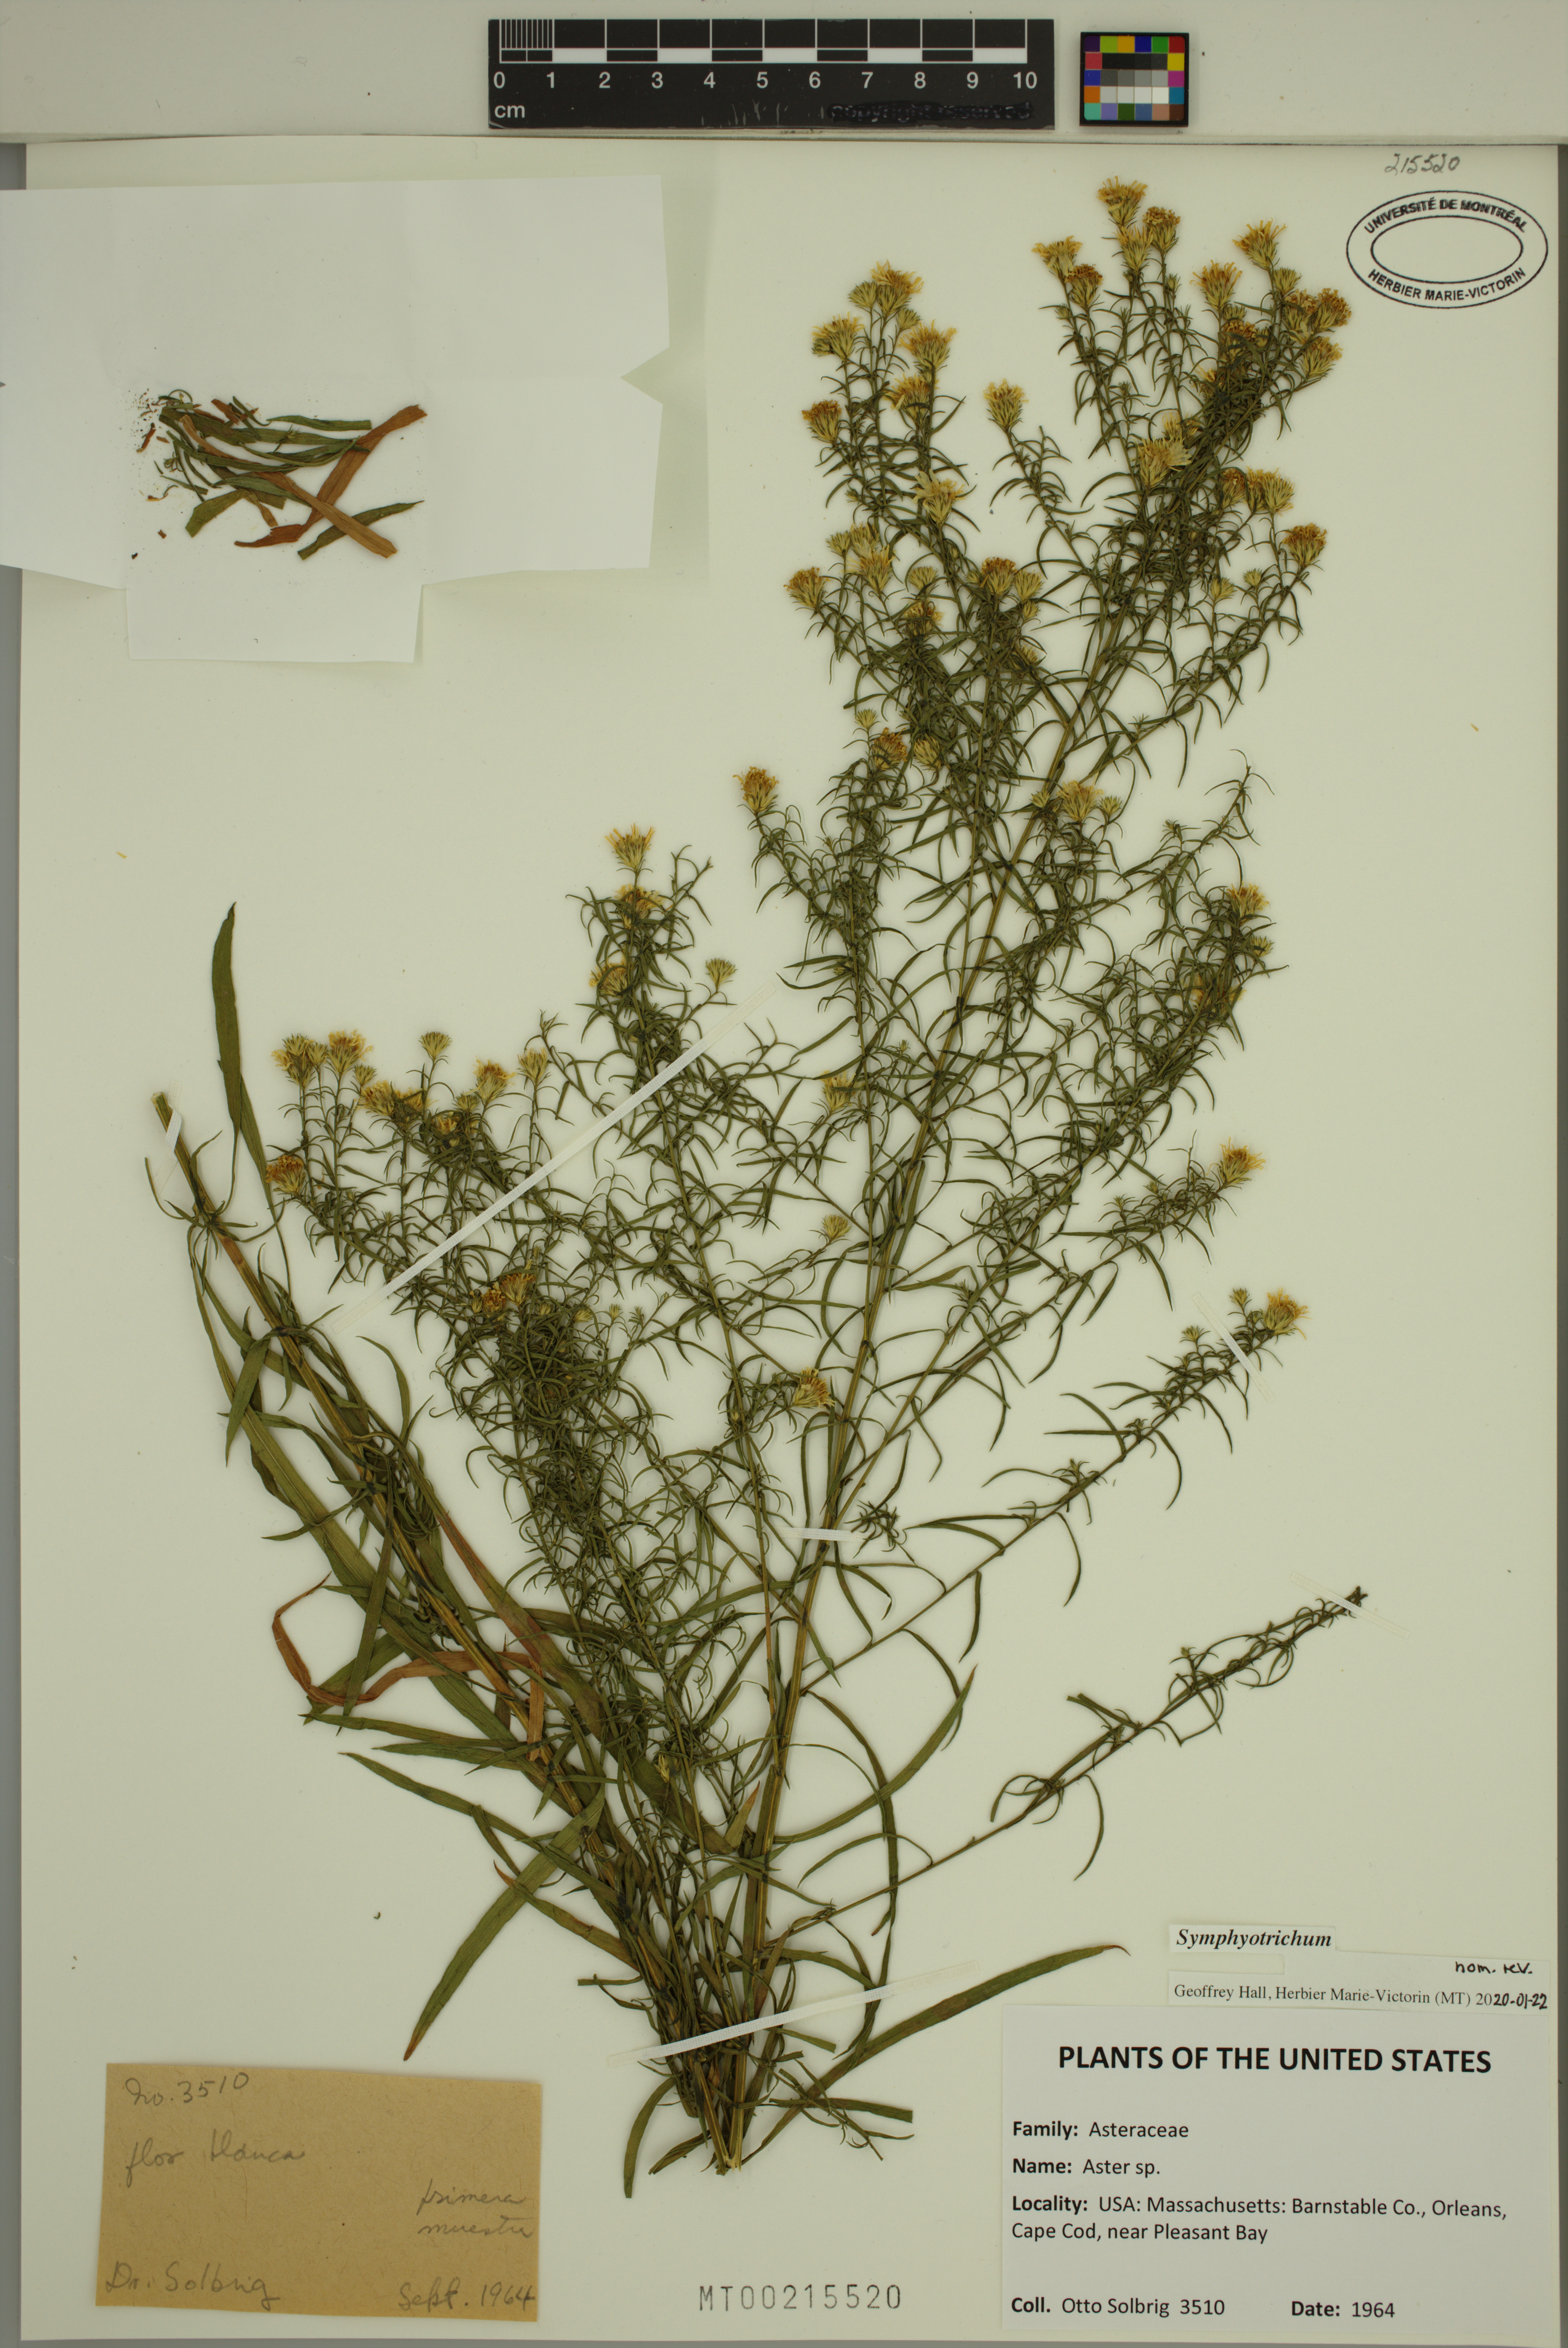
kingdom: Plantae
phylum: Tracheophyta
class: Magnoliopsida
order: Asterales
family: Asteraceae
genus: Symphyotrichum
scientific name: Symphyotrichum pilosum
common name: Awl aster
